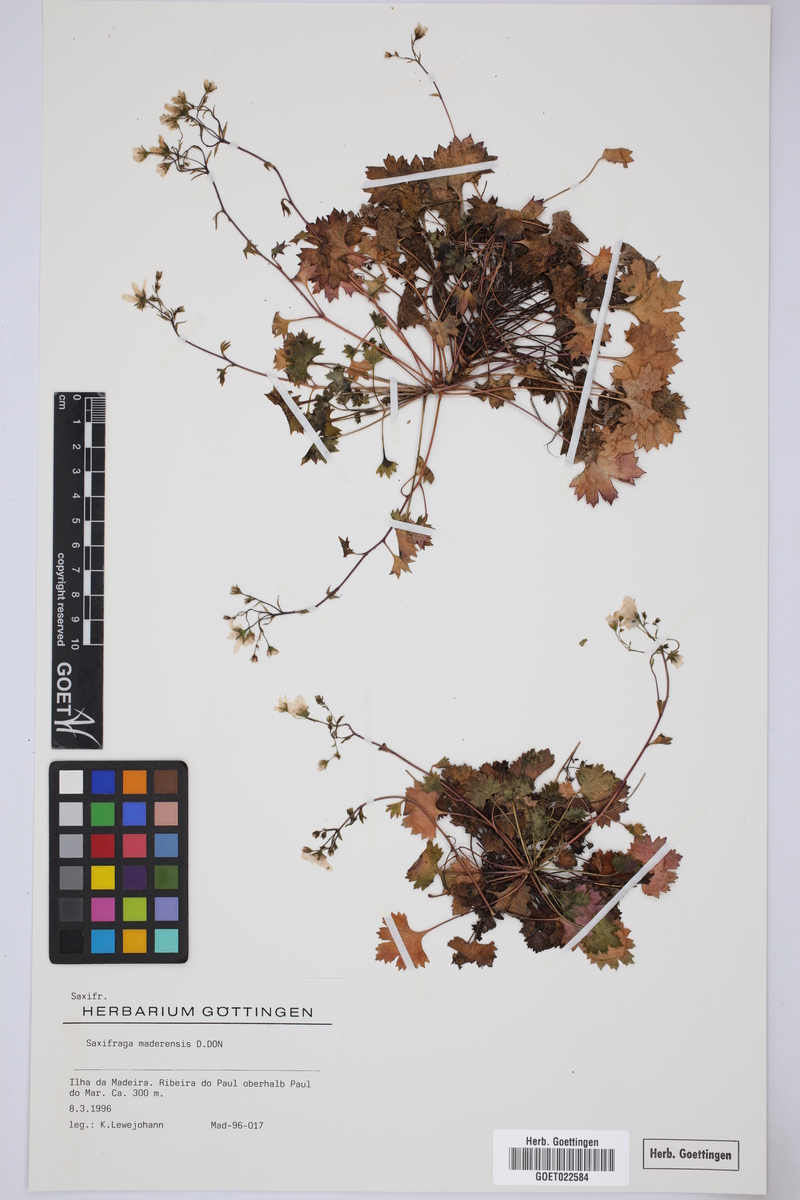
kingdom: Plantae
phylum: Tracheophyta
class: Magnoliopsida
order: Saxifragales
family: Saxifragaceae
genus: Saxifraga
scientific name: Saxifraga maderensis
